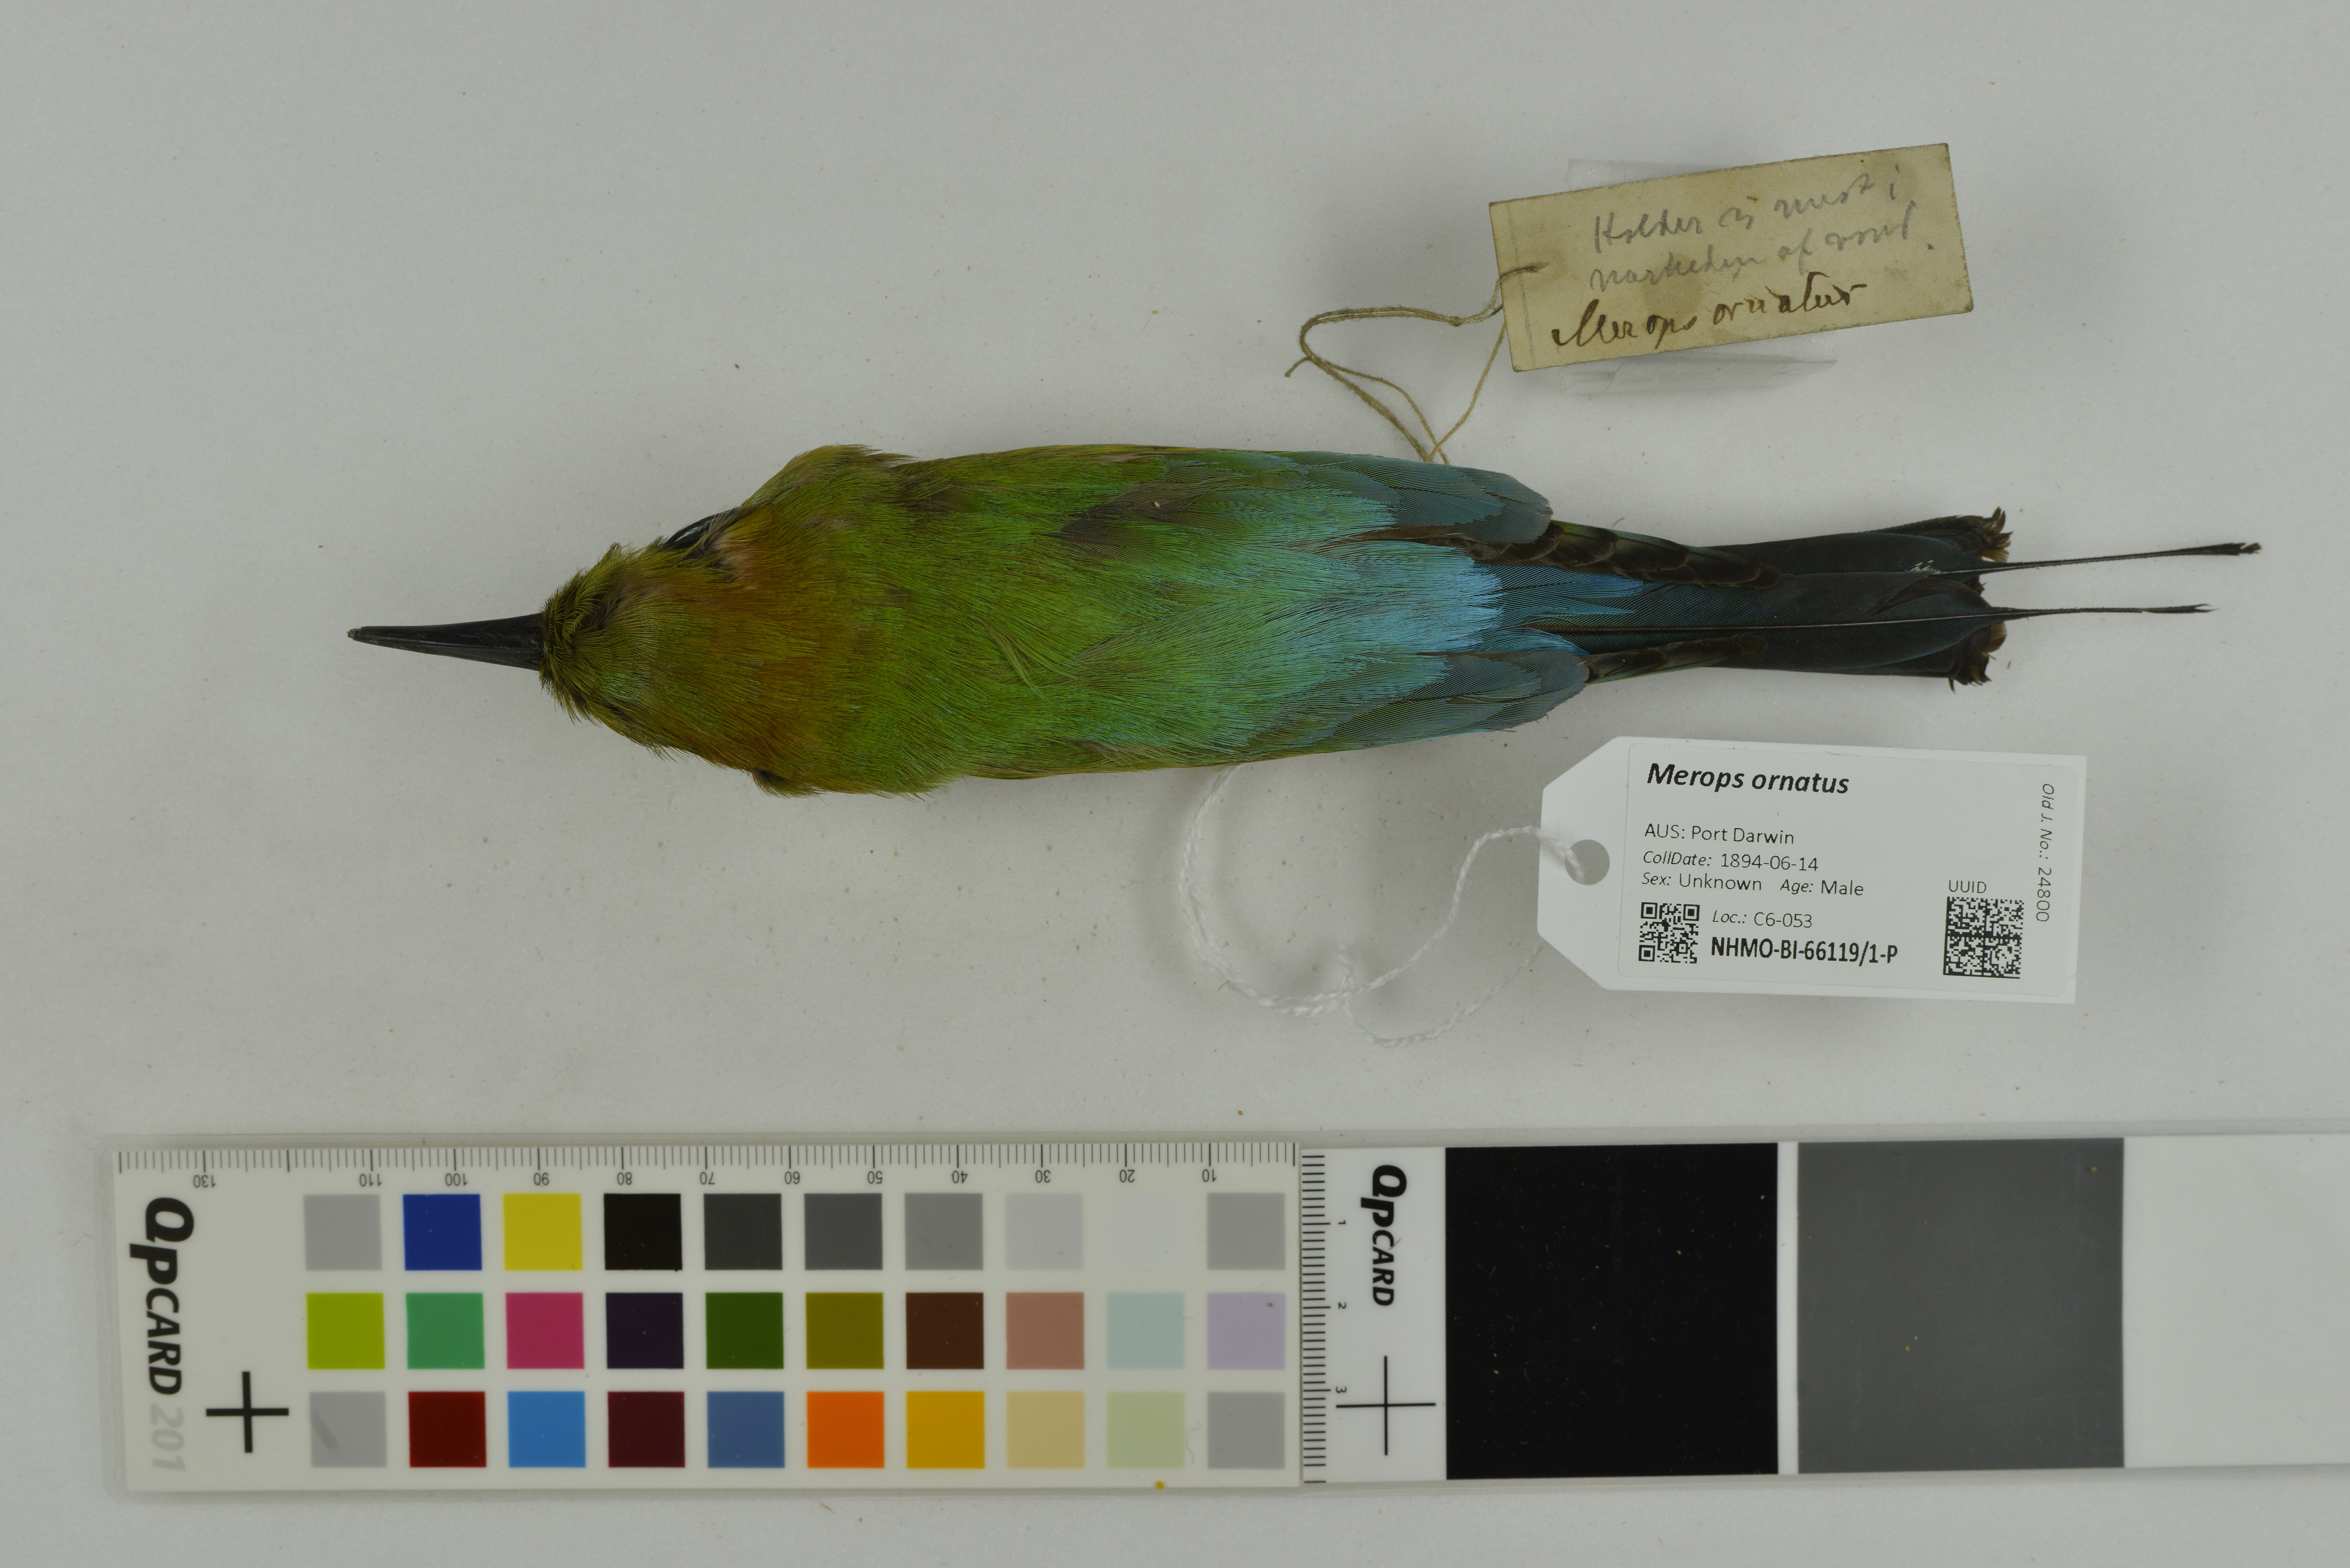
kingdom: Animalia
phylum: Chordata
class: Aves
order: Coraciiformes
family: Meropidae
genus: Merops
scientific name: Merops ornatus
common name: Rainbow bee-eater
